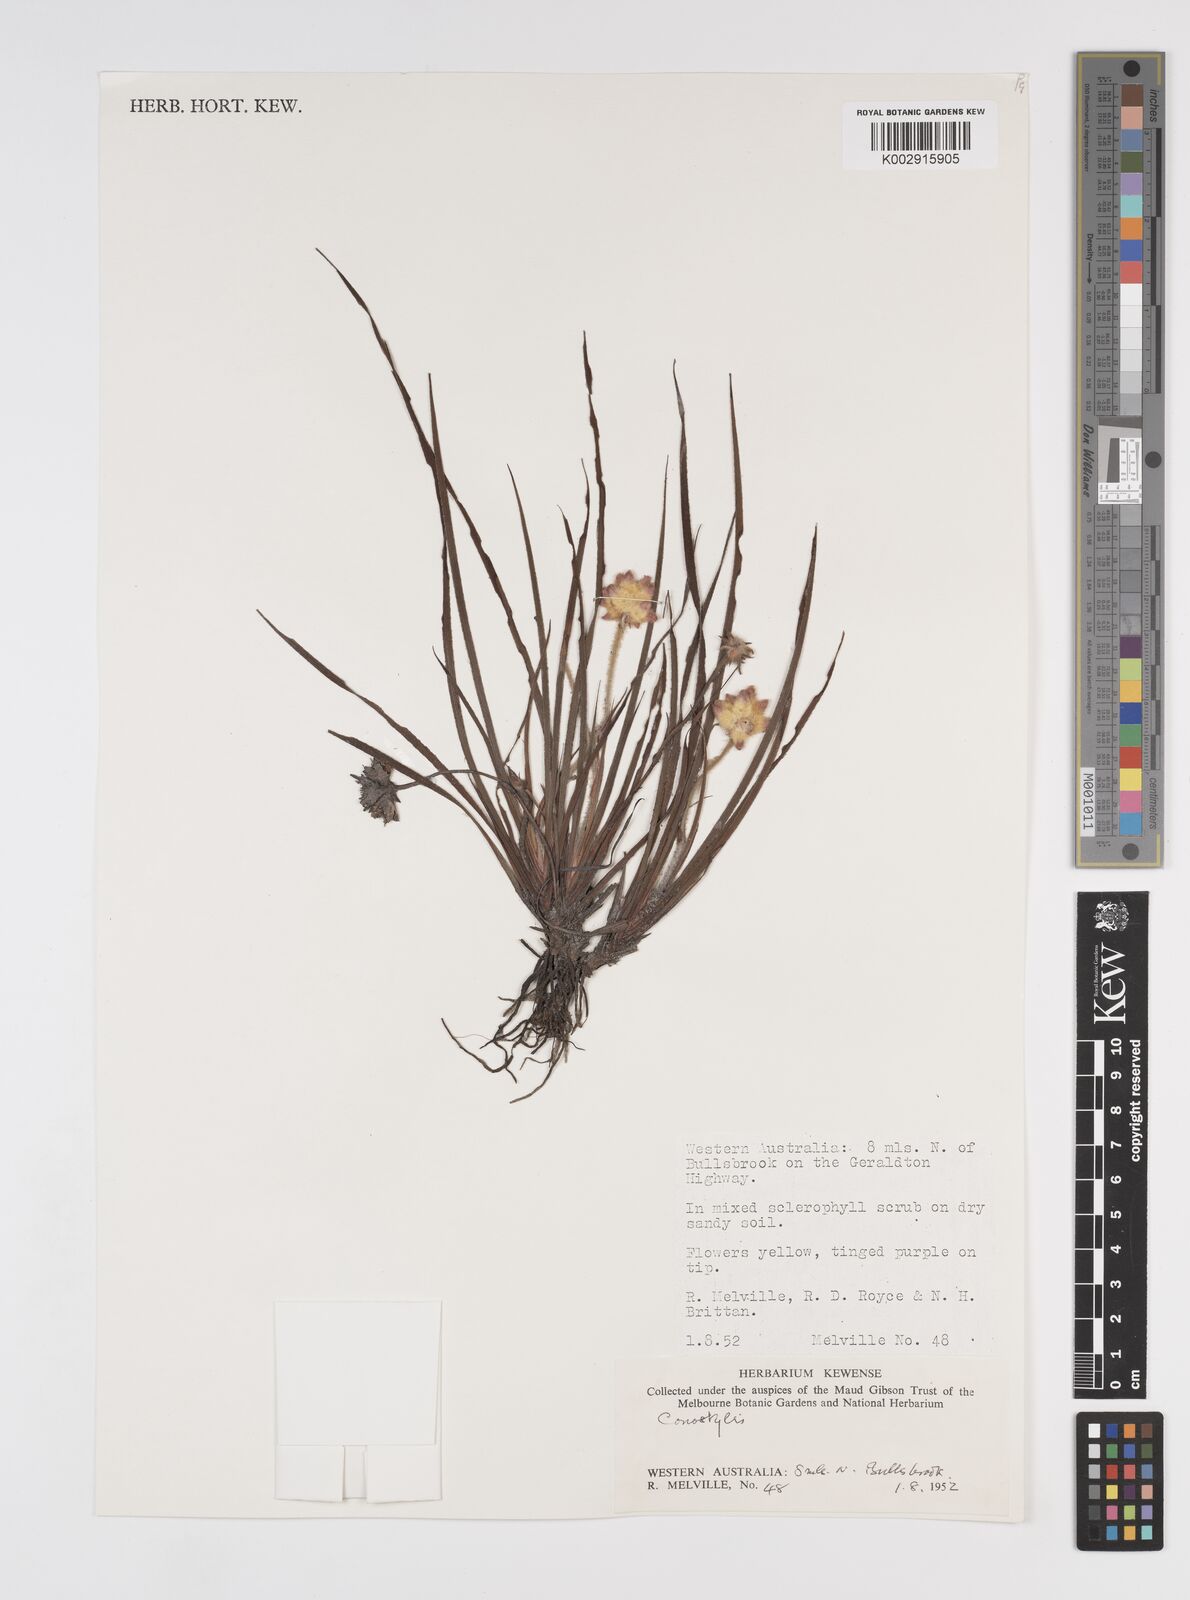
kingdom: Plantae
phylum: Tracheophyta
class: Liliopsida
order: Commelinales
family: Haemodoraceae
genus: Conostylis
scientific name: Conostylis
